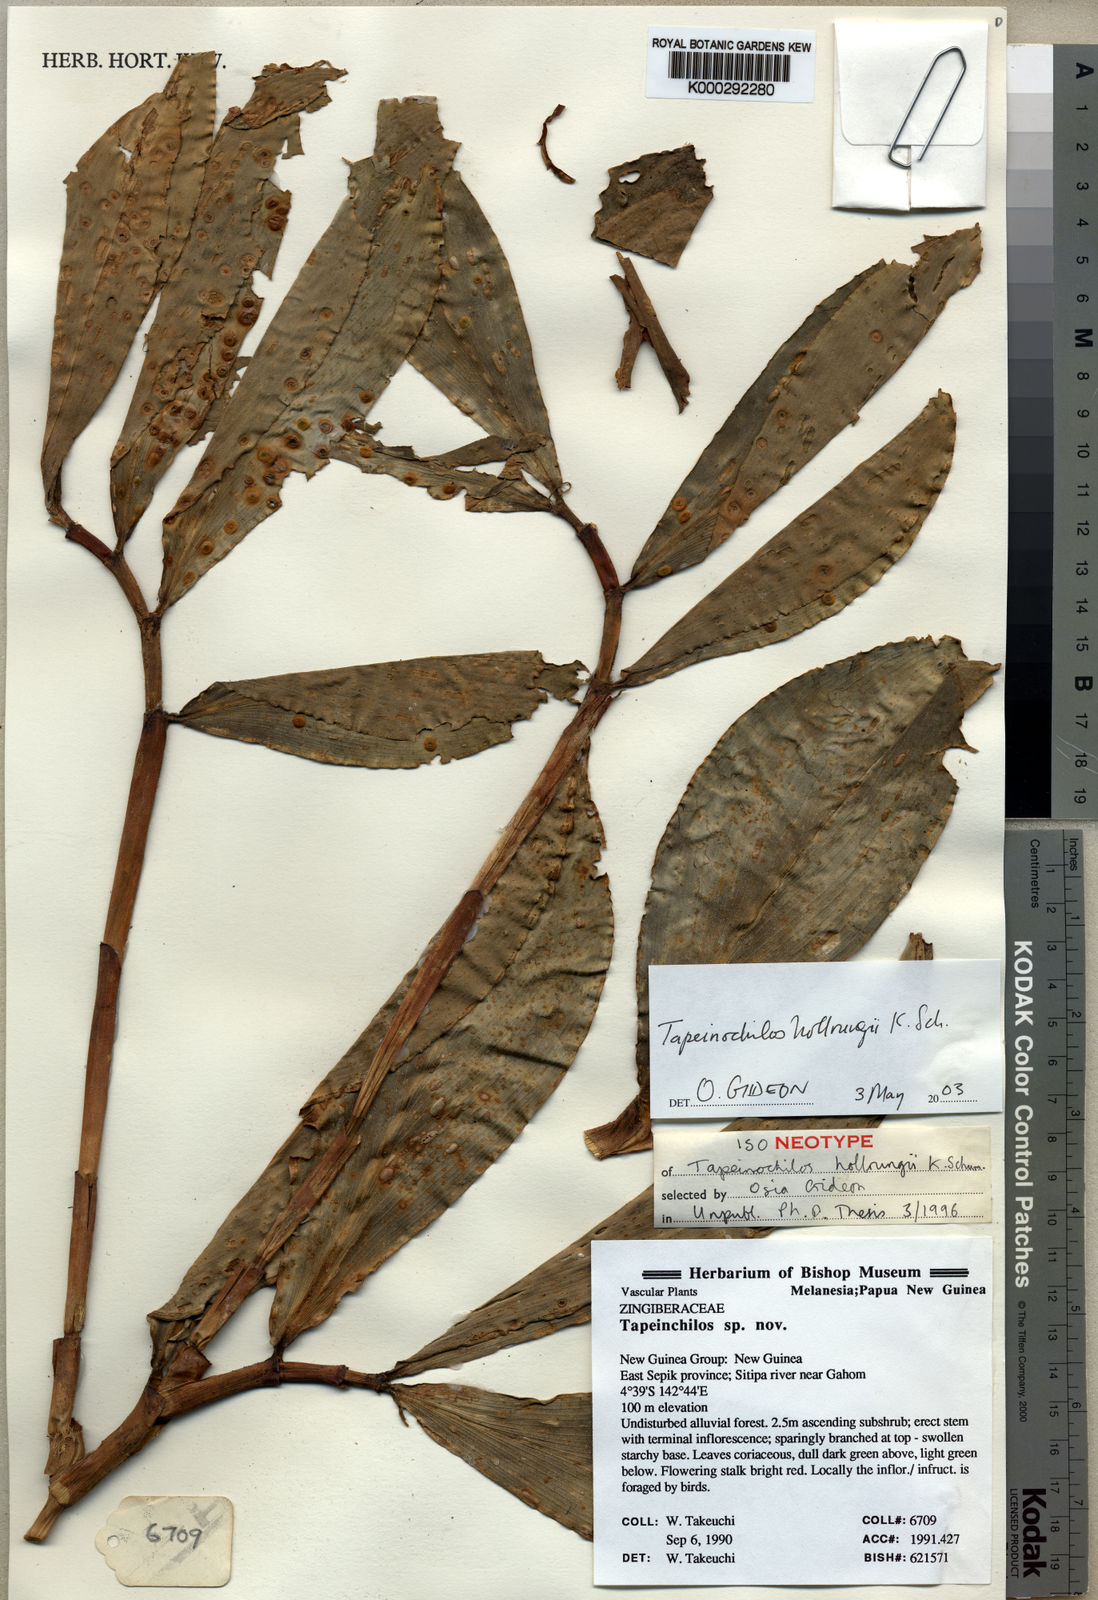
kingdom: Plantae
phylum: Tracheophyta
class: Liliopsida
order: Zingiberales
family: Costaceae
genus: Tapeinochilos
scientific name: Tapeinochilos hollrungii
